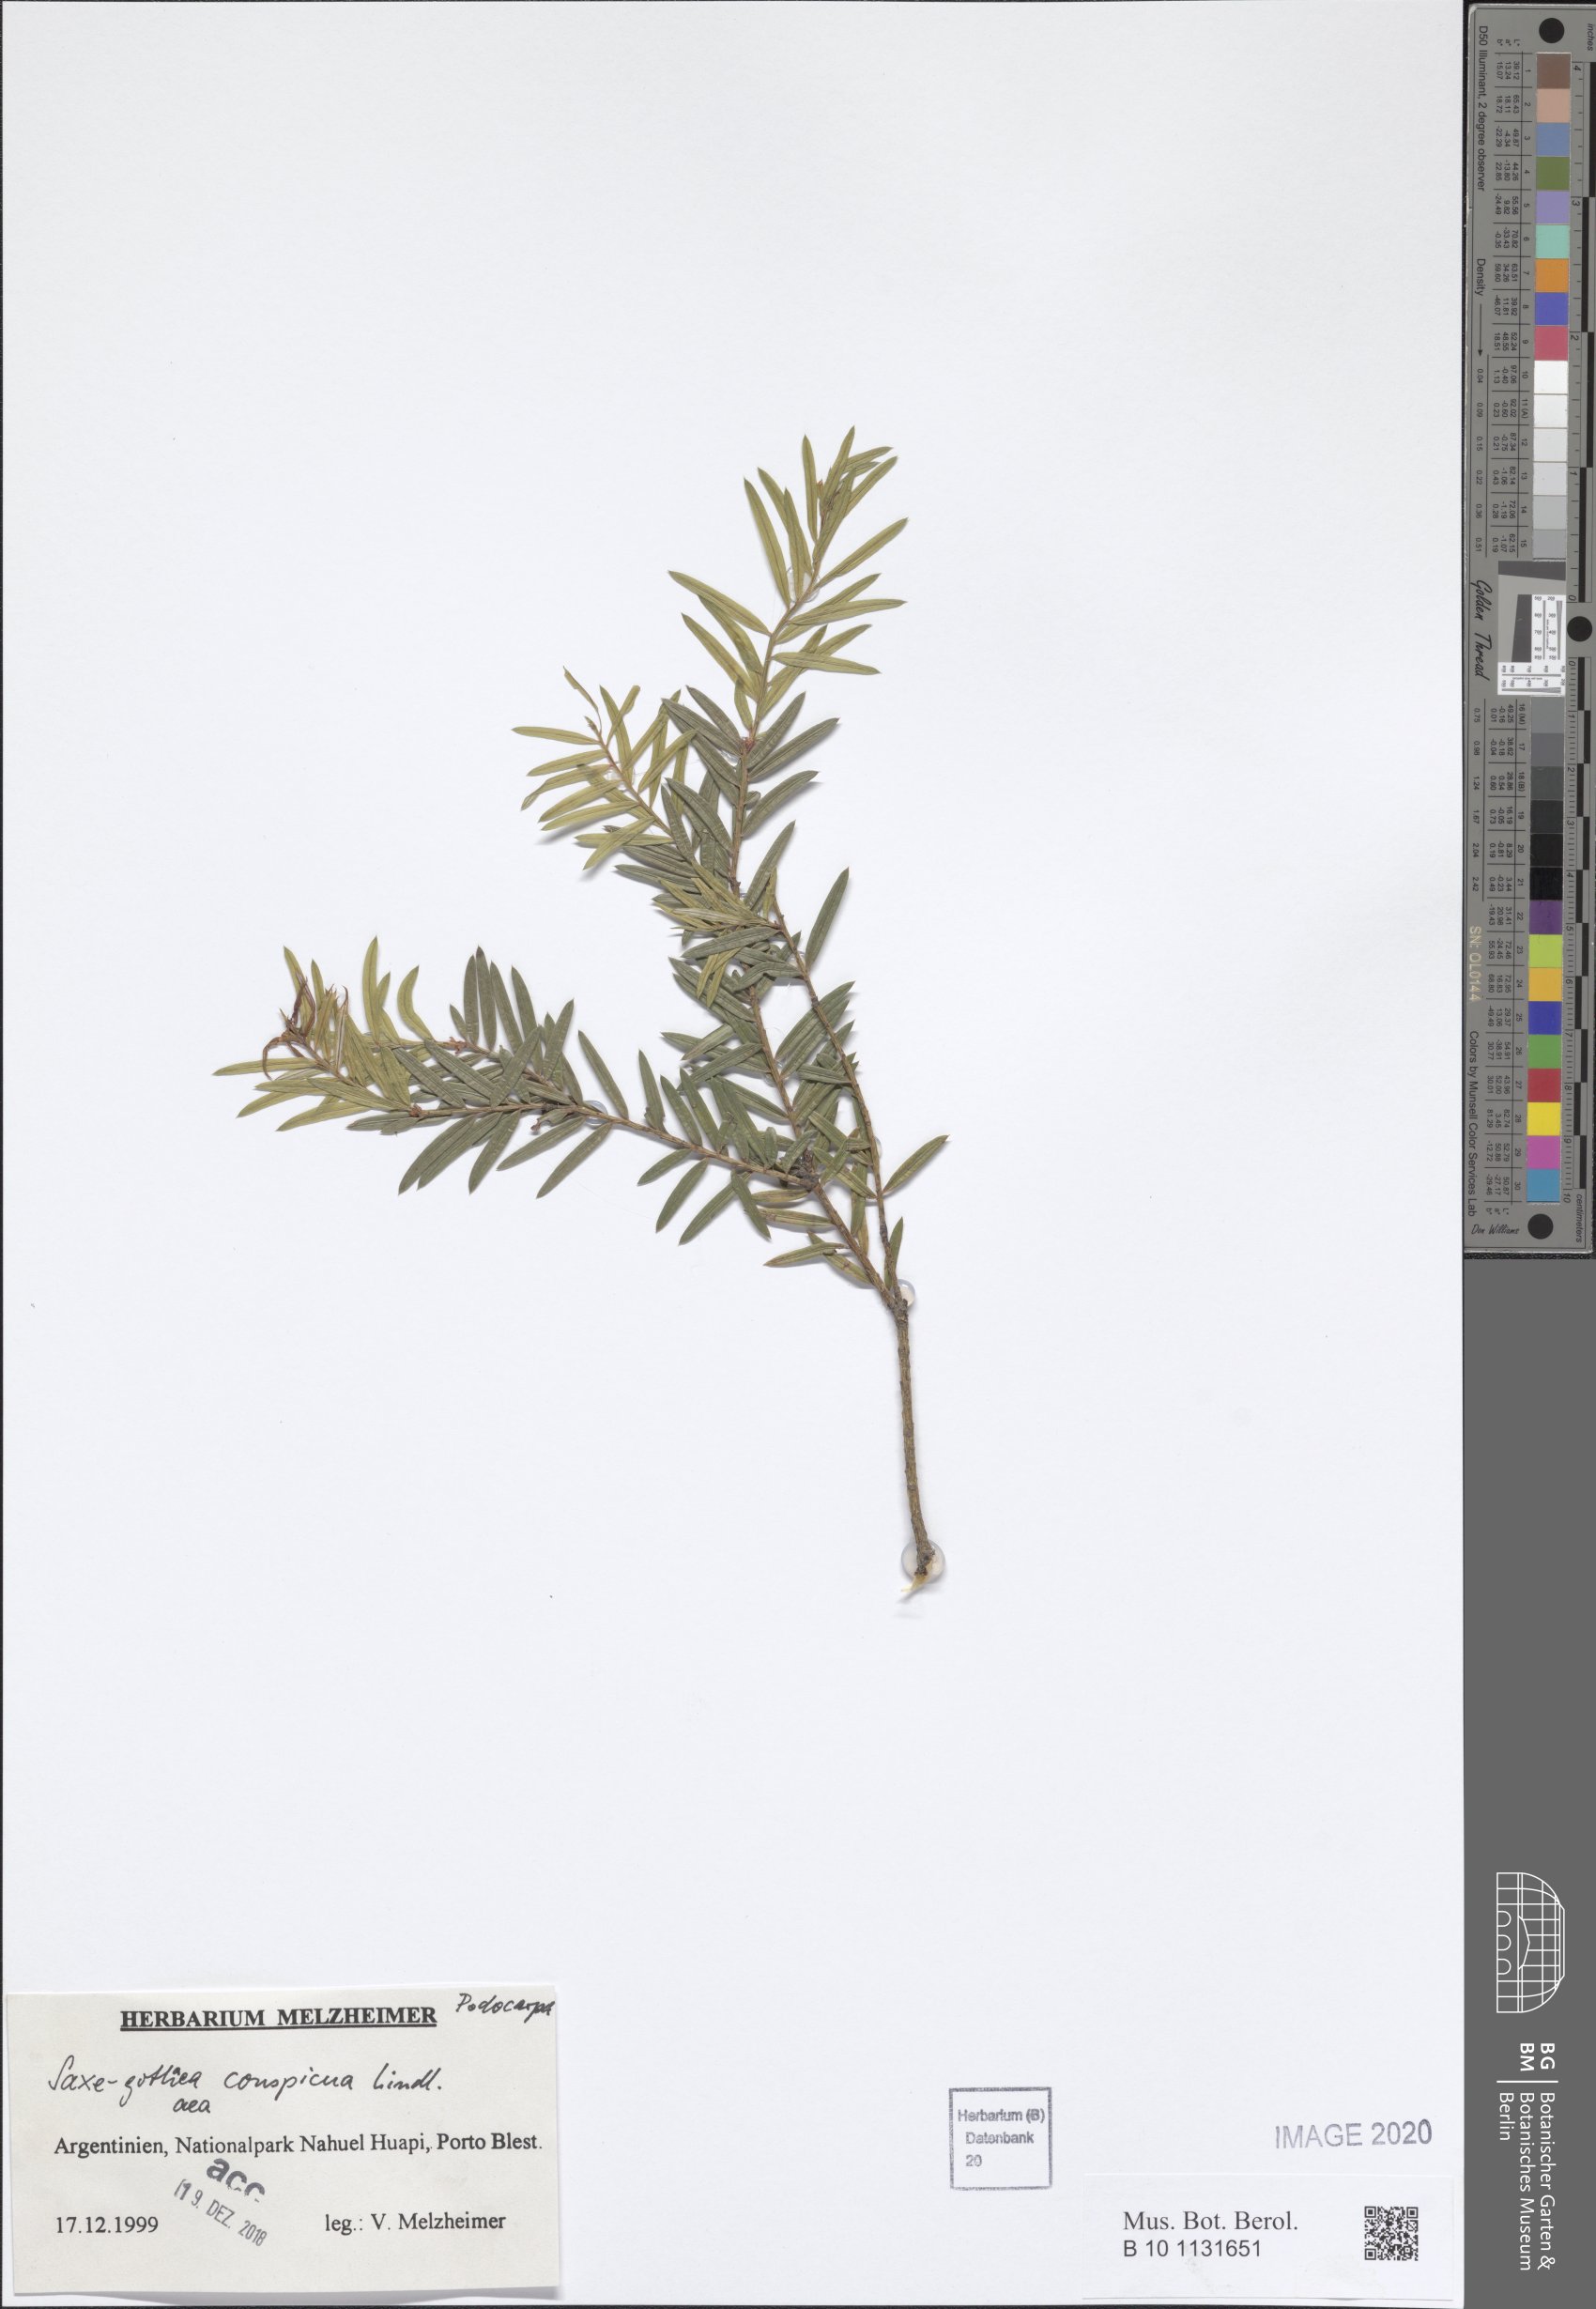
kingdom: Plantae
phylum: Tracheophyta
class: Pinopsida
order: Pinales
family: Podocarpaceae
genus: Saxegothaea
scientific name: Saxegothaea conspicua
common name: Prince albert's yew
